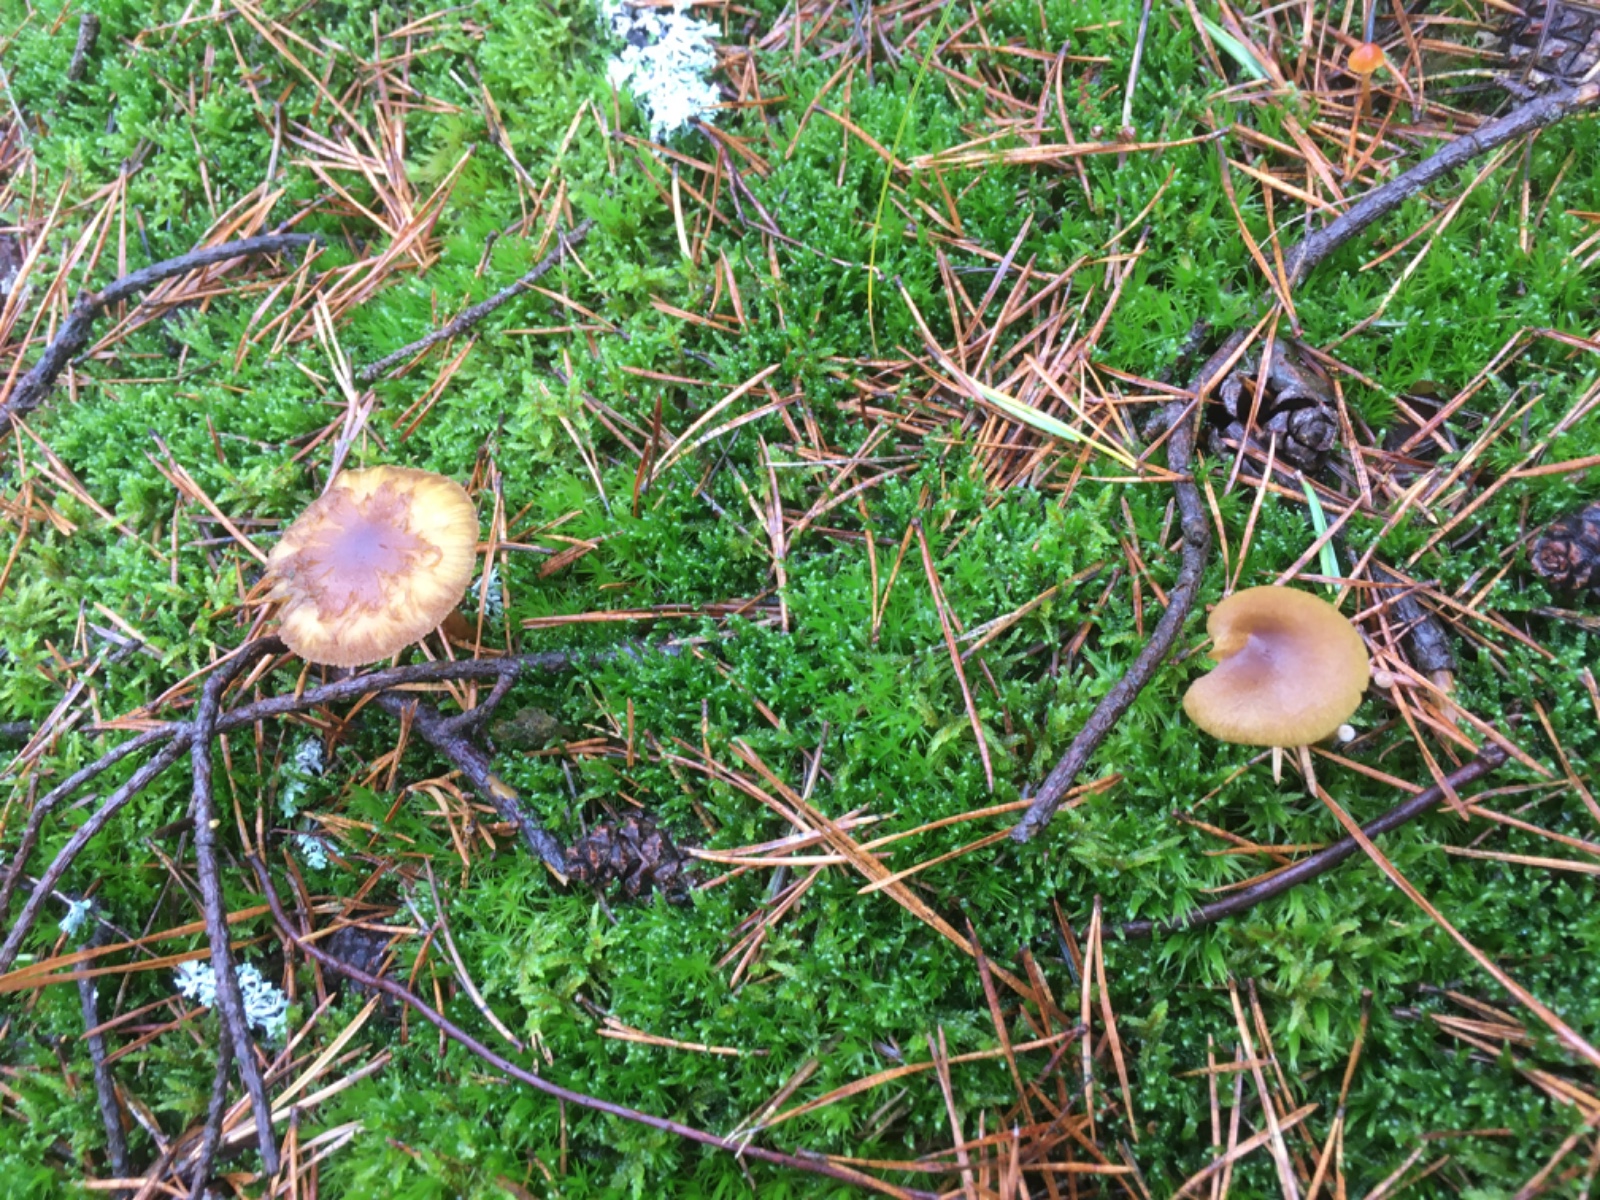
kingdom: Fungi
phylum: Basidiomycota
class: Agaricomycetes
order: Agaricales
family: Cortinariaceae
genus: Cortinarius
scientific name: Cortinarius
